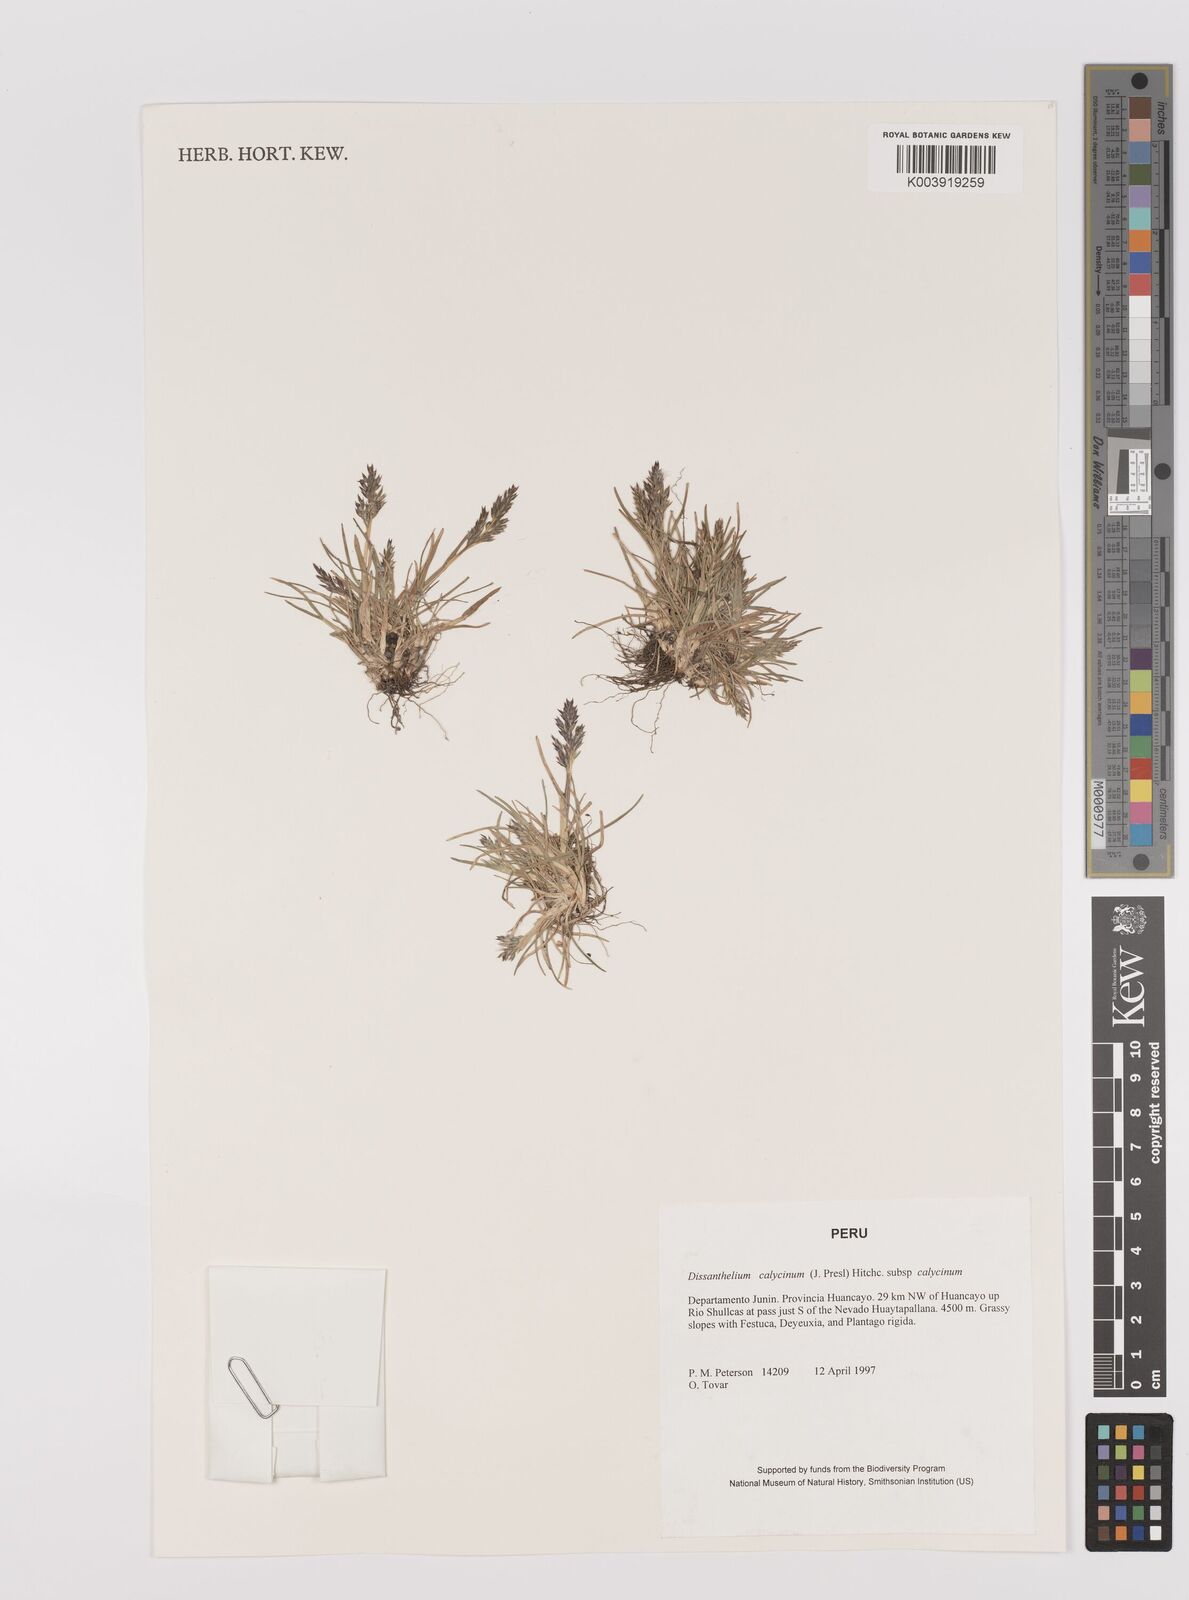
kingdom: Plantae
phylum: Tracheophyta
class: Liliopsida
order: Poales
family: Poaceae
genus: Poa
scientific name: Poa calycina
